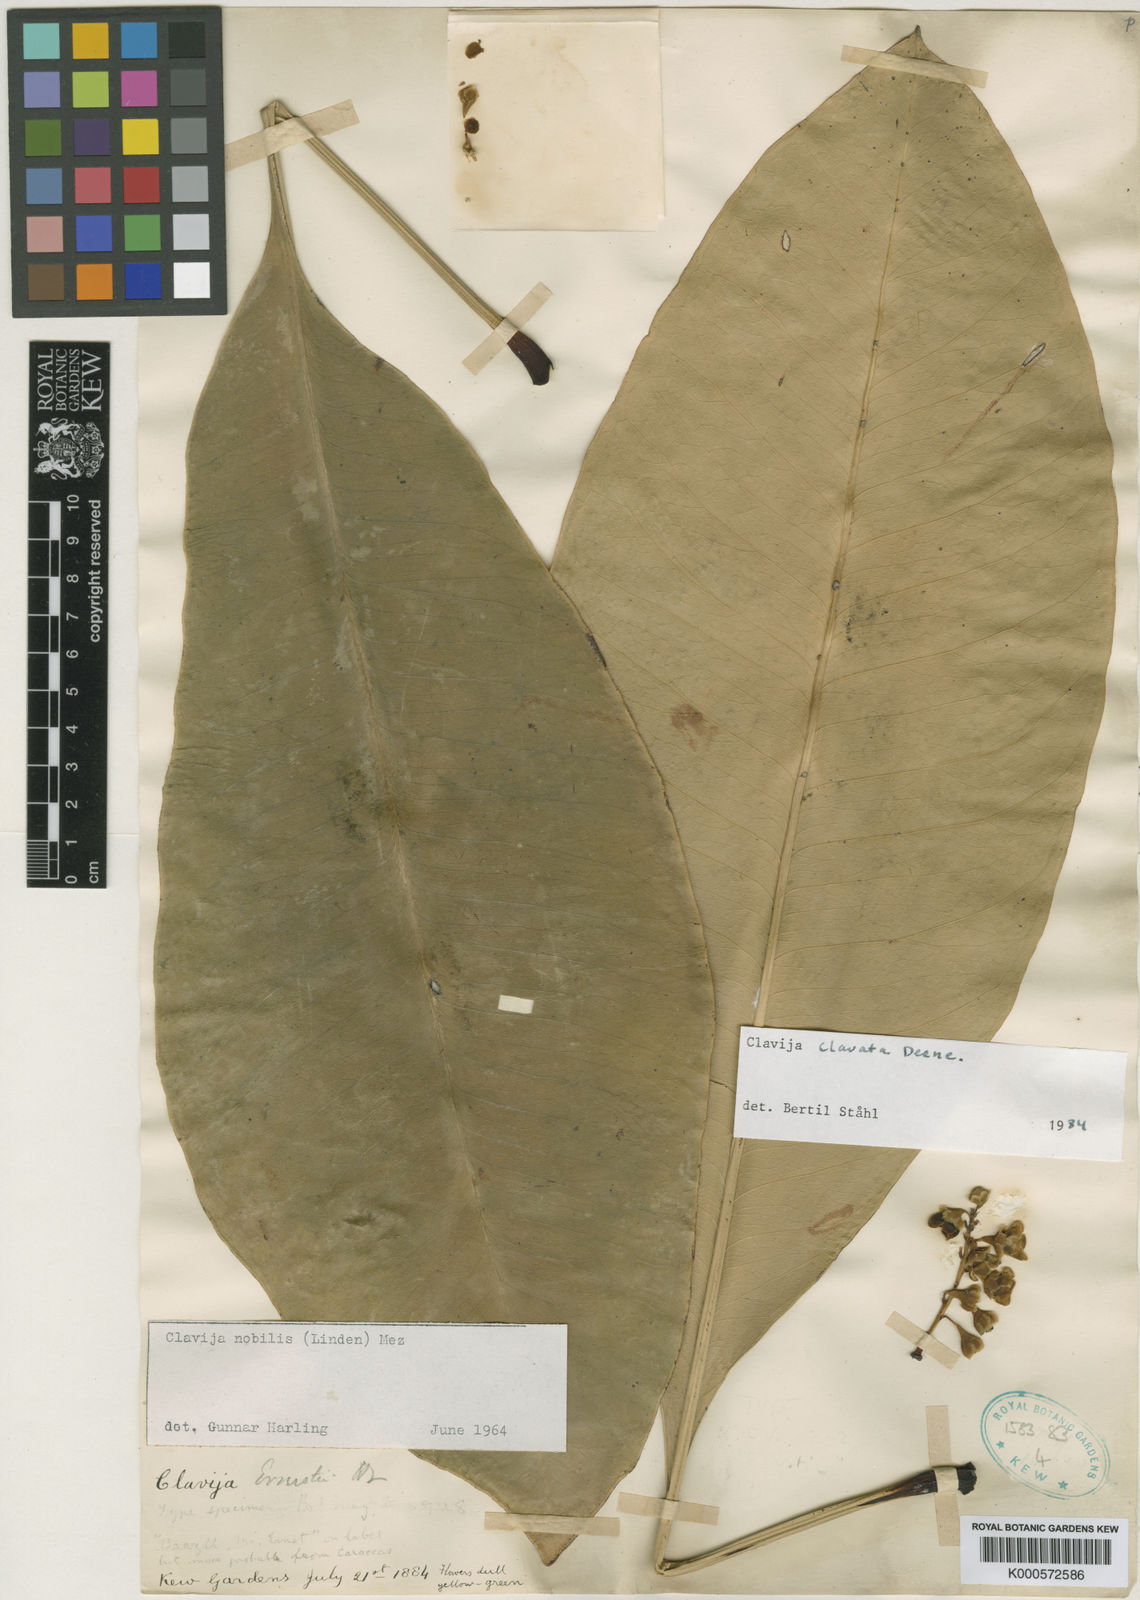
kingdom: Plantae
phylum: Tracheophyta
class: Magnoliopsida
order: Ericales
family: Primulaceae
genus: Clavija
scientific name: Clavija clavata
